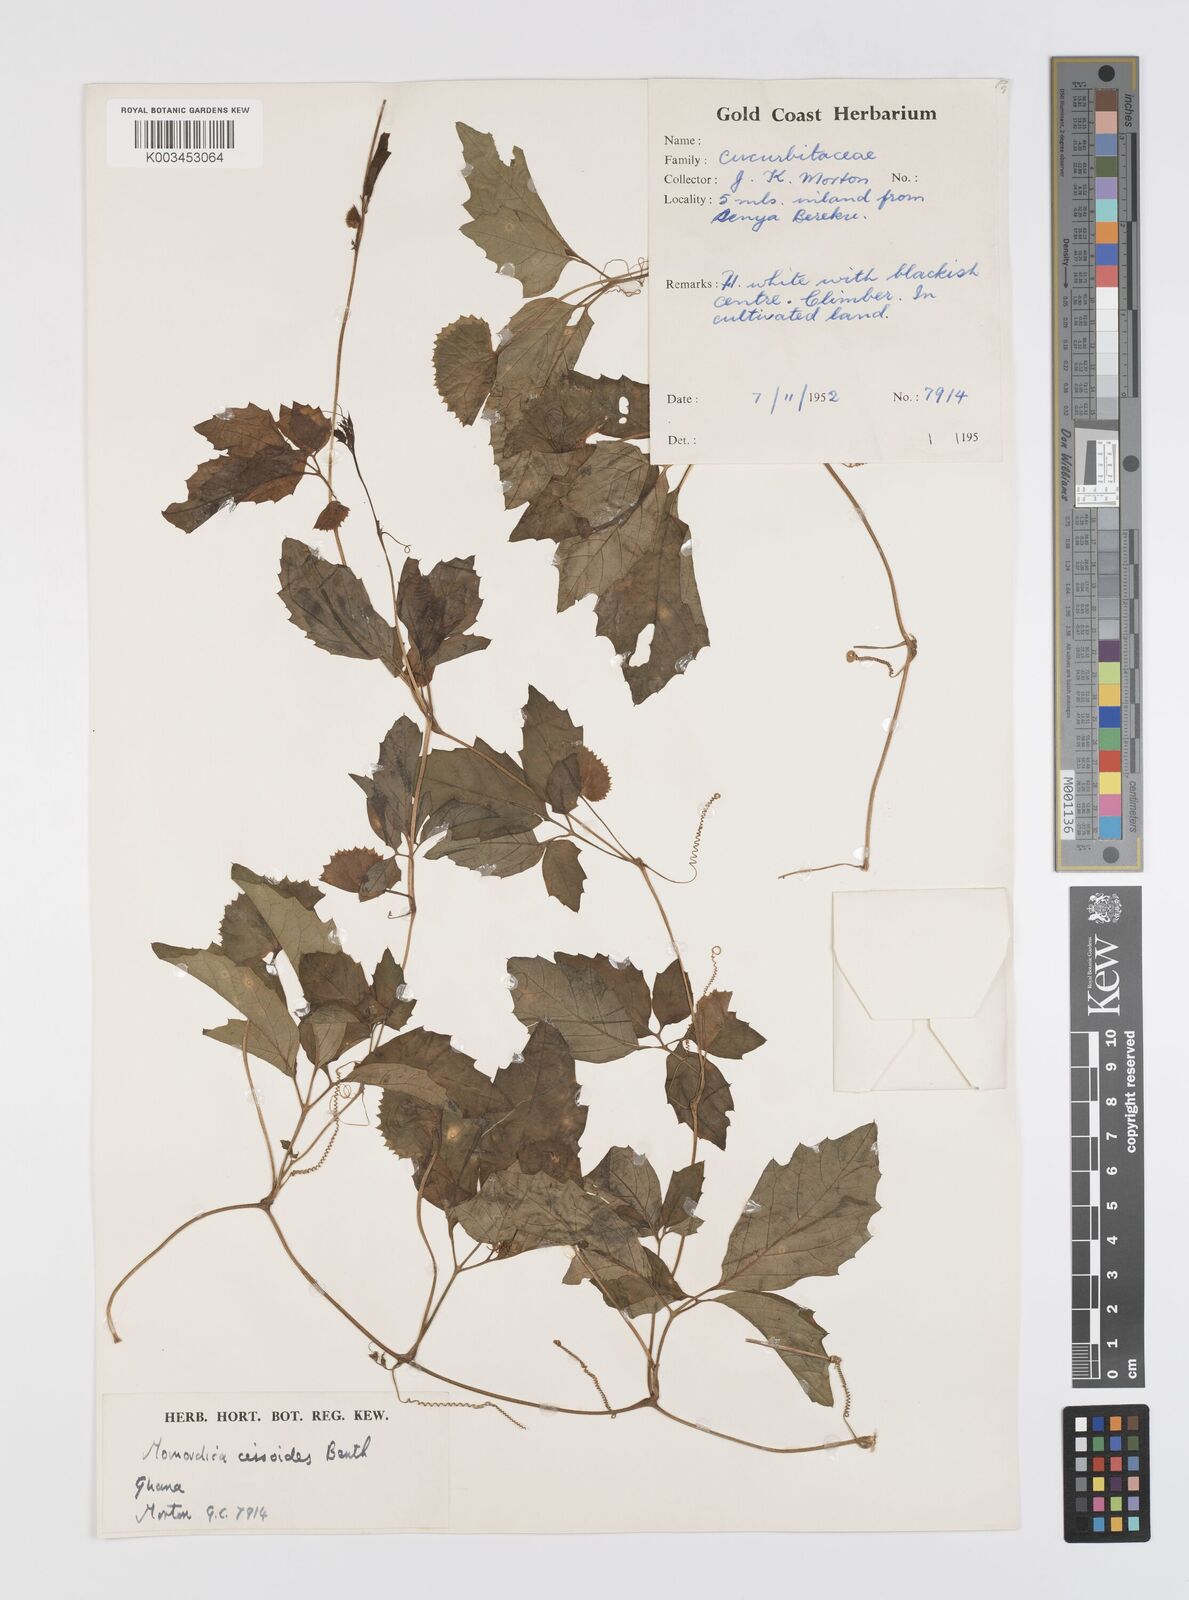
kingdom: Plantae
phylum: Tracheophyta
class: Magnoliopsida
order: Cucurbitales
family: Cucurbitaceae
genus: Momordica
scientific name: Momordica cissoides
